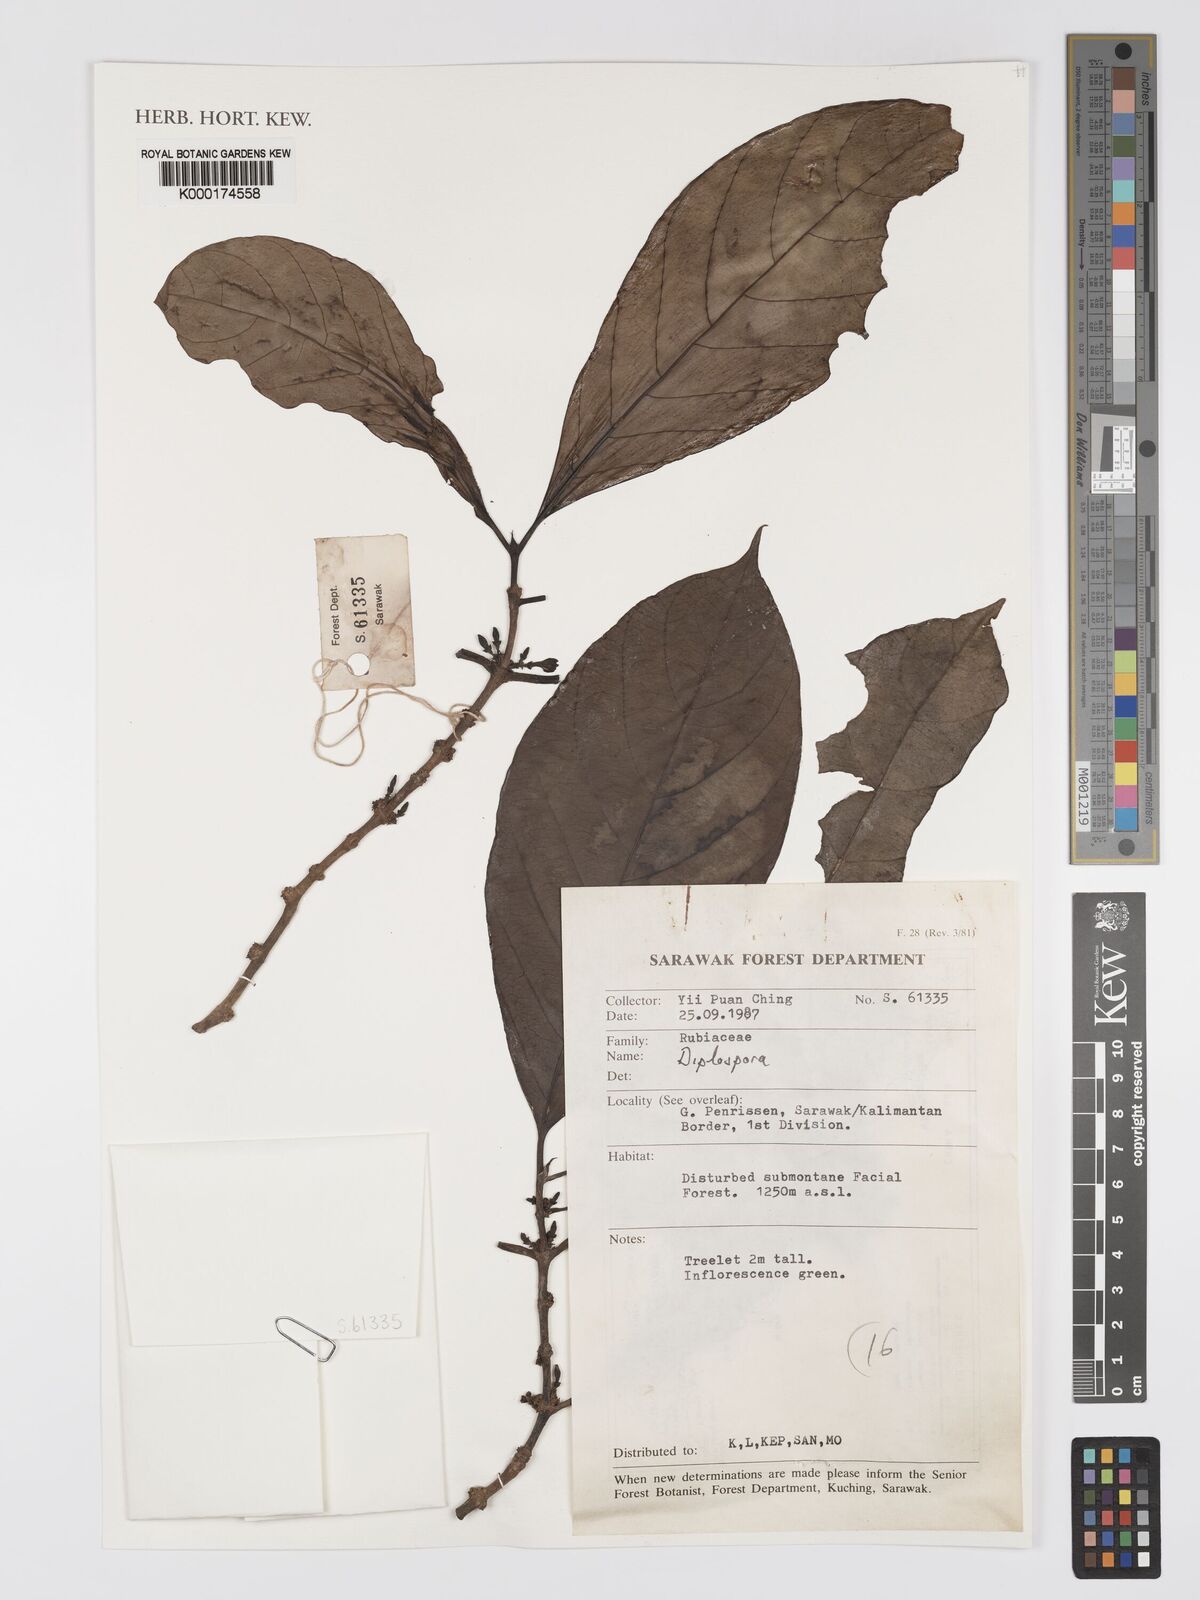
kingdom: Plantae
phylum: Tracheophyta
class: Magnoliopsida
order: Gentianales
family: Rubiaceae
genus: Diplospora
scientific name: Diplospora
